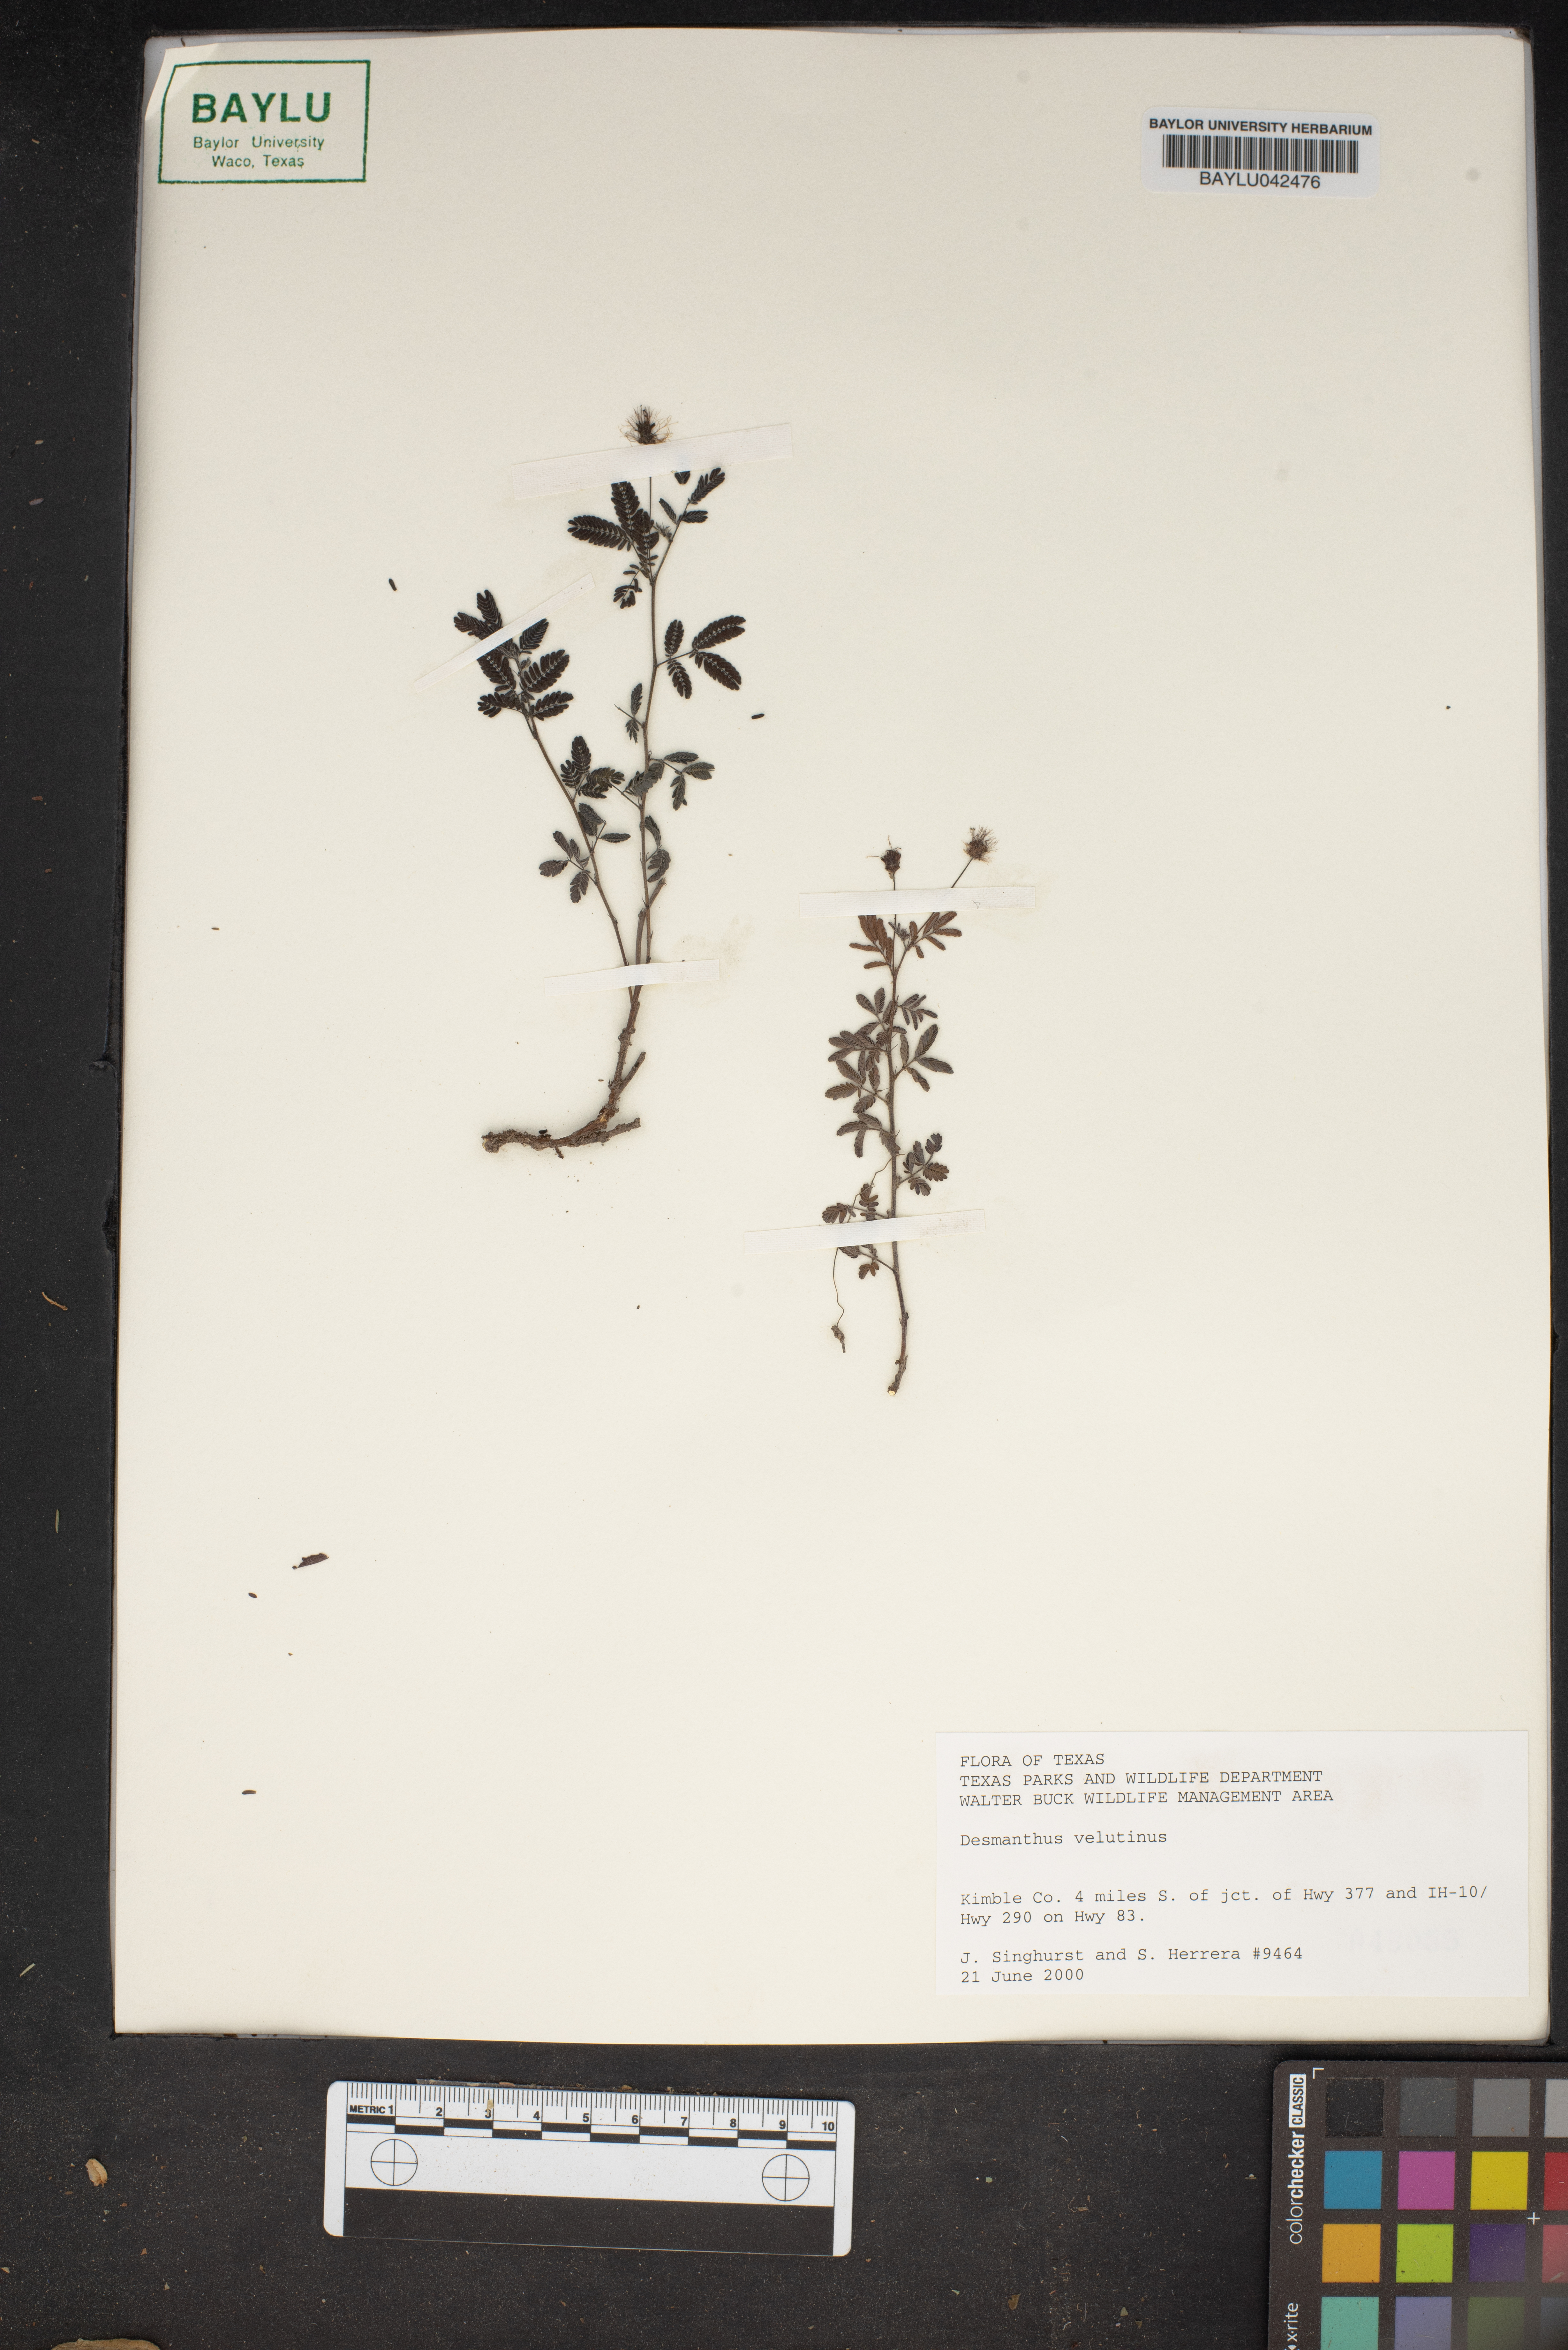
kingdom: Plantae
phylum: Tracheophyta
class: Magnoliopsida
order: Fabales
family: Fabaceae
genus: Desmanthus
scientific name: Desmanthus velutinus
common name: Velvet bundle-flower
